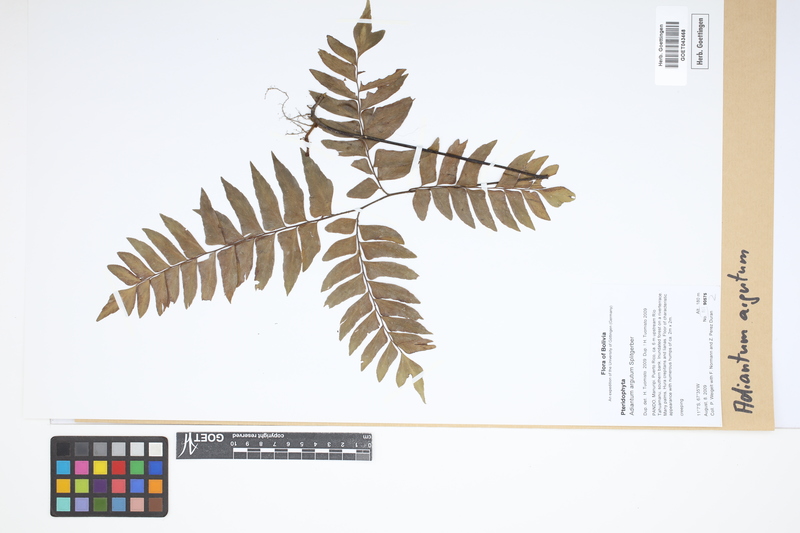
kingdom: Plantae
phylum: Tracheophyta
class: Polypodiopsida
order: Polypodiales
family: Pteridaceae
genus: Adiantum
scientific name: Adiantum argutum
